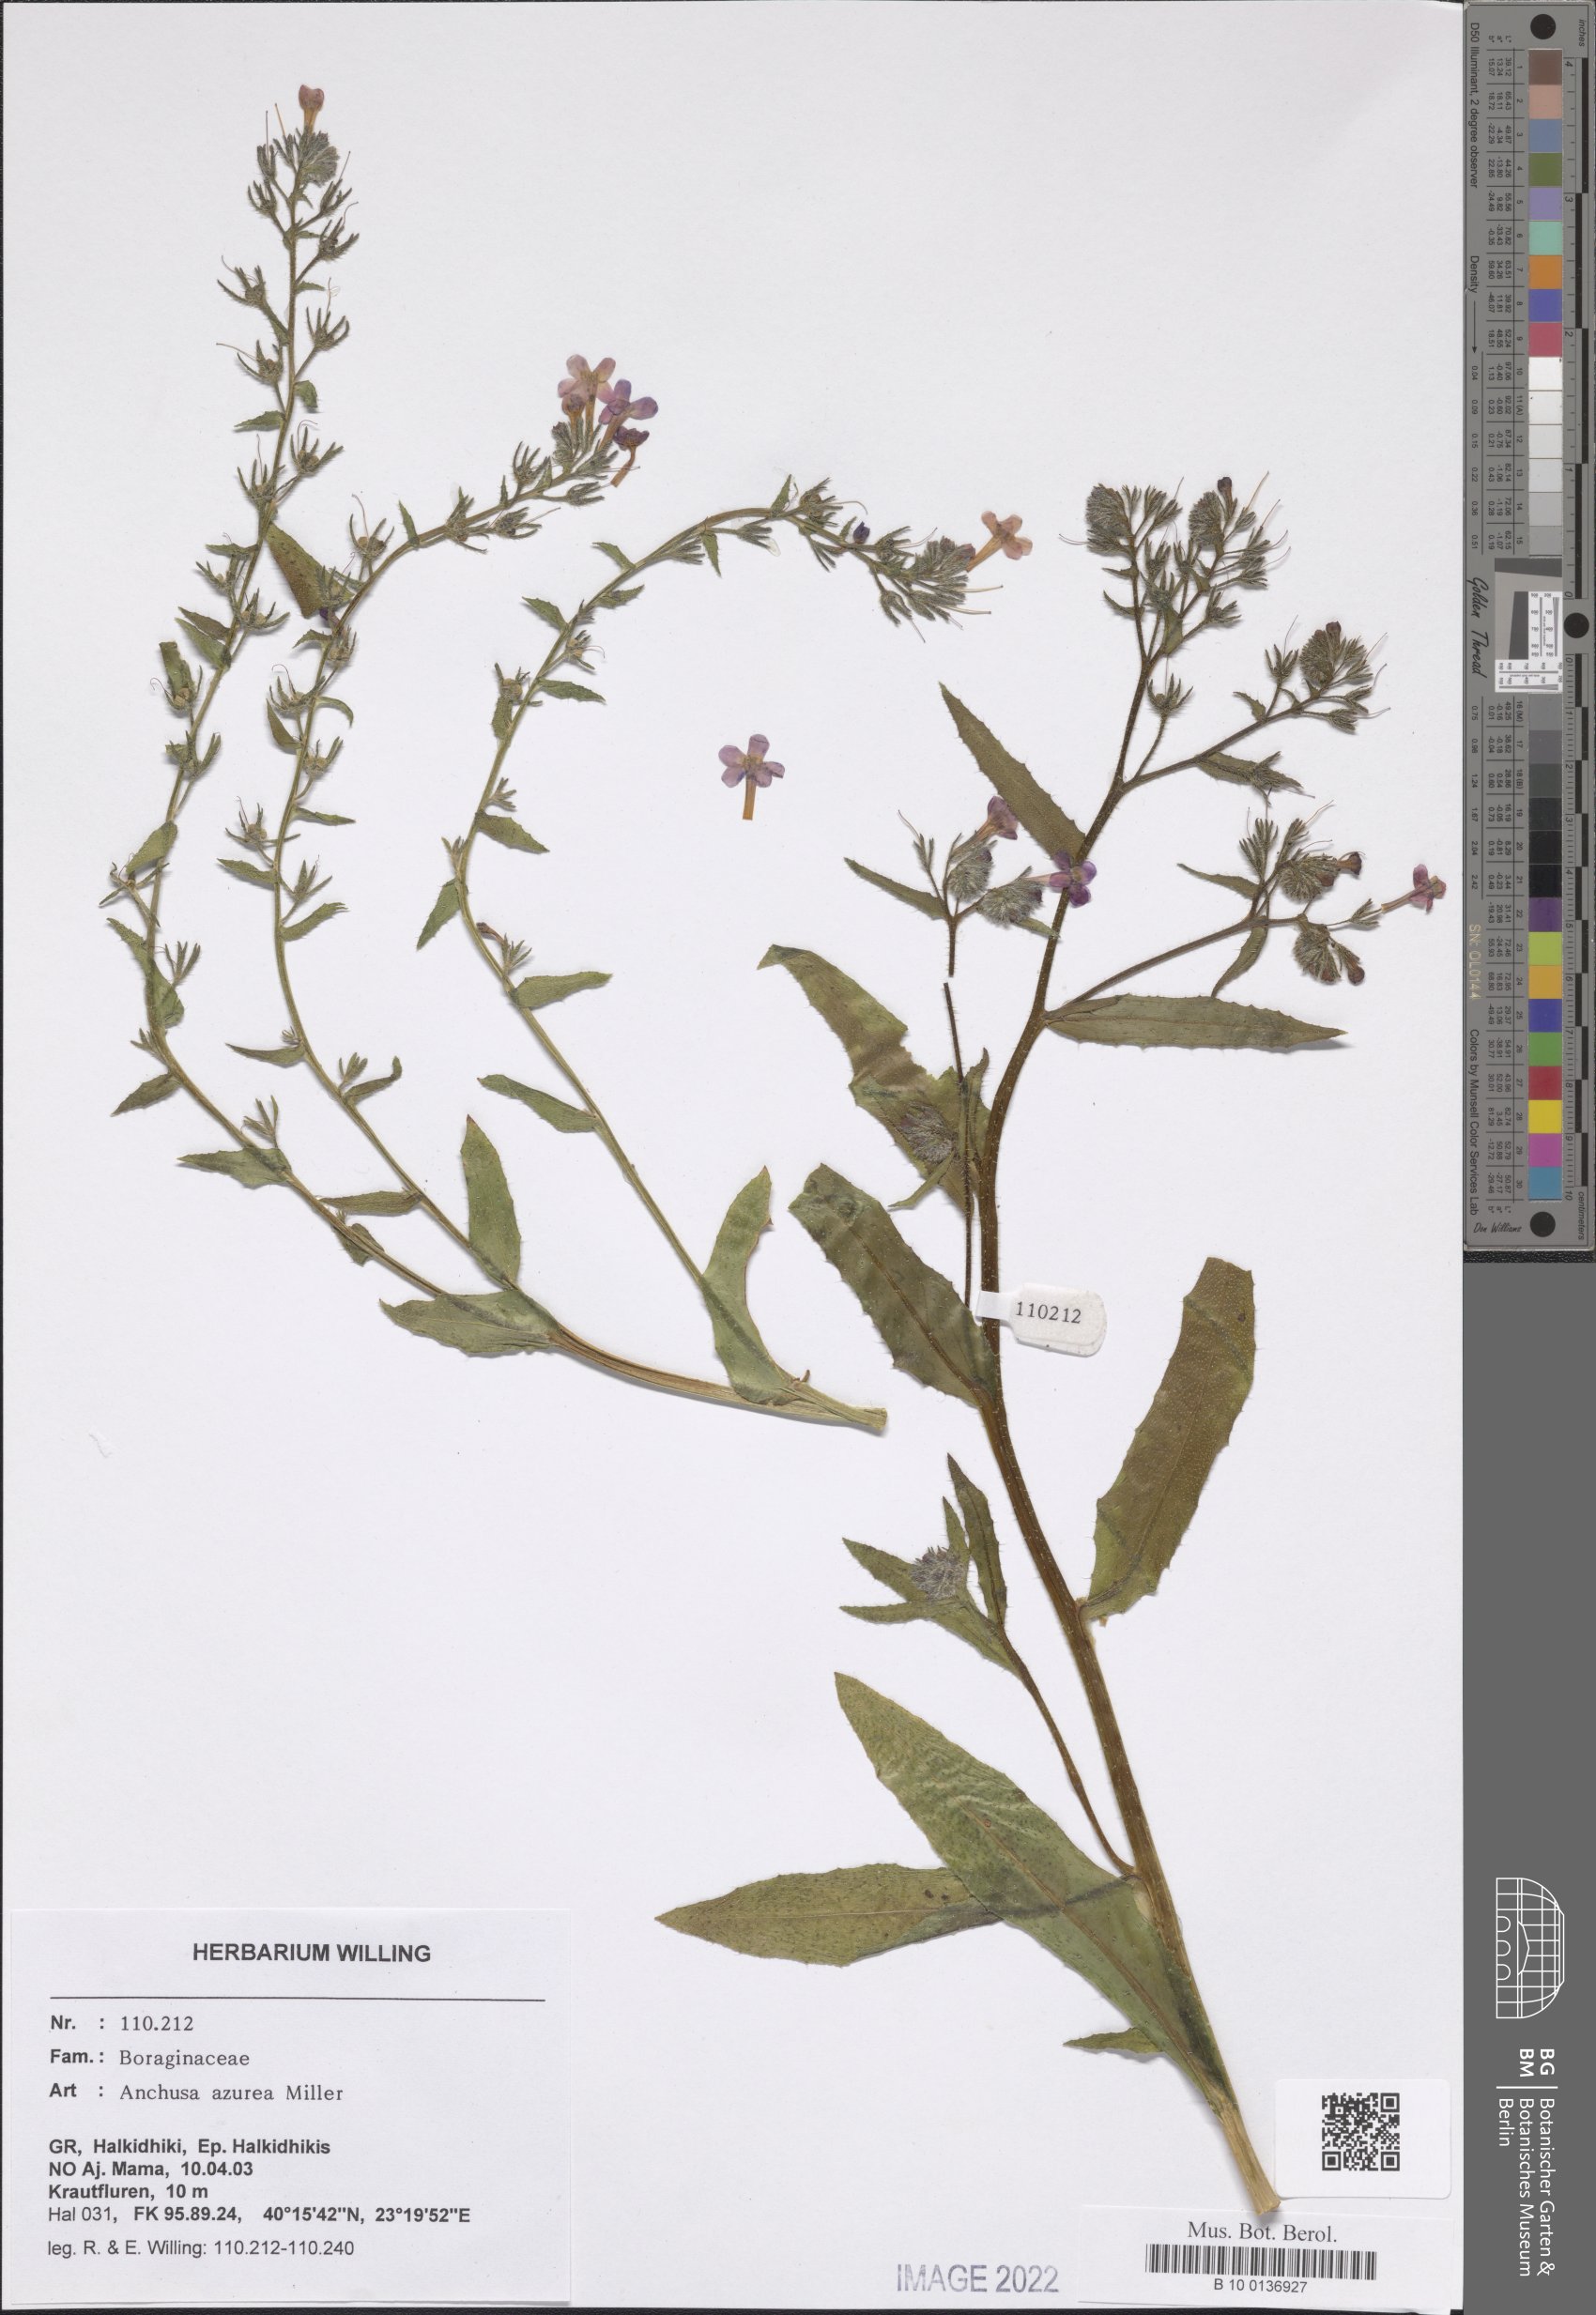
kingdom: Plantae
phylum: Tracheophyta
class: Magnoliopsida
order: Boraginales
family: Boraginaceae
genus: Anchusa
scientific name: Anchusa azurea
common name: Garden anchusa
